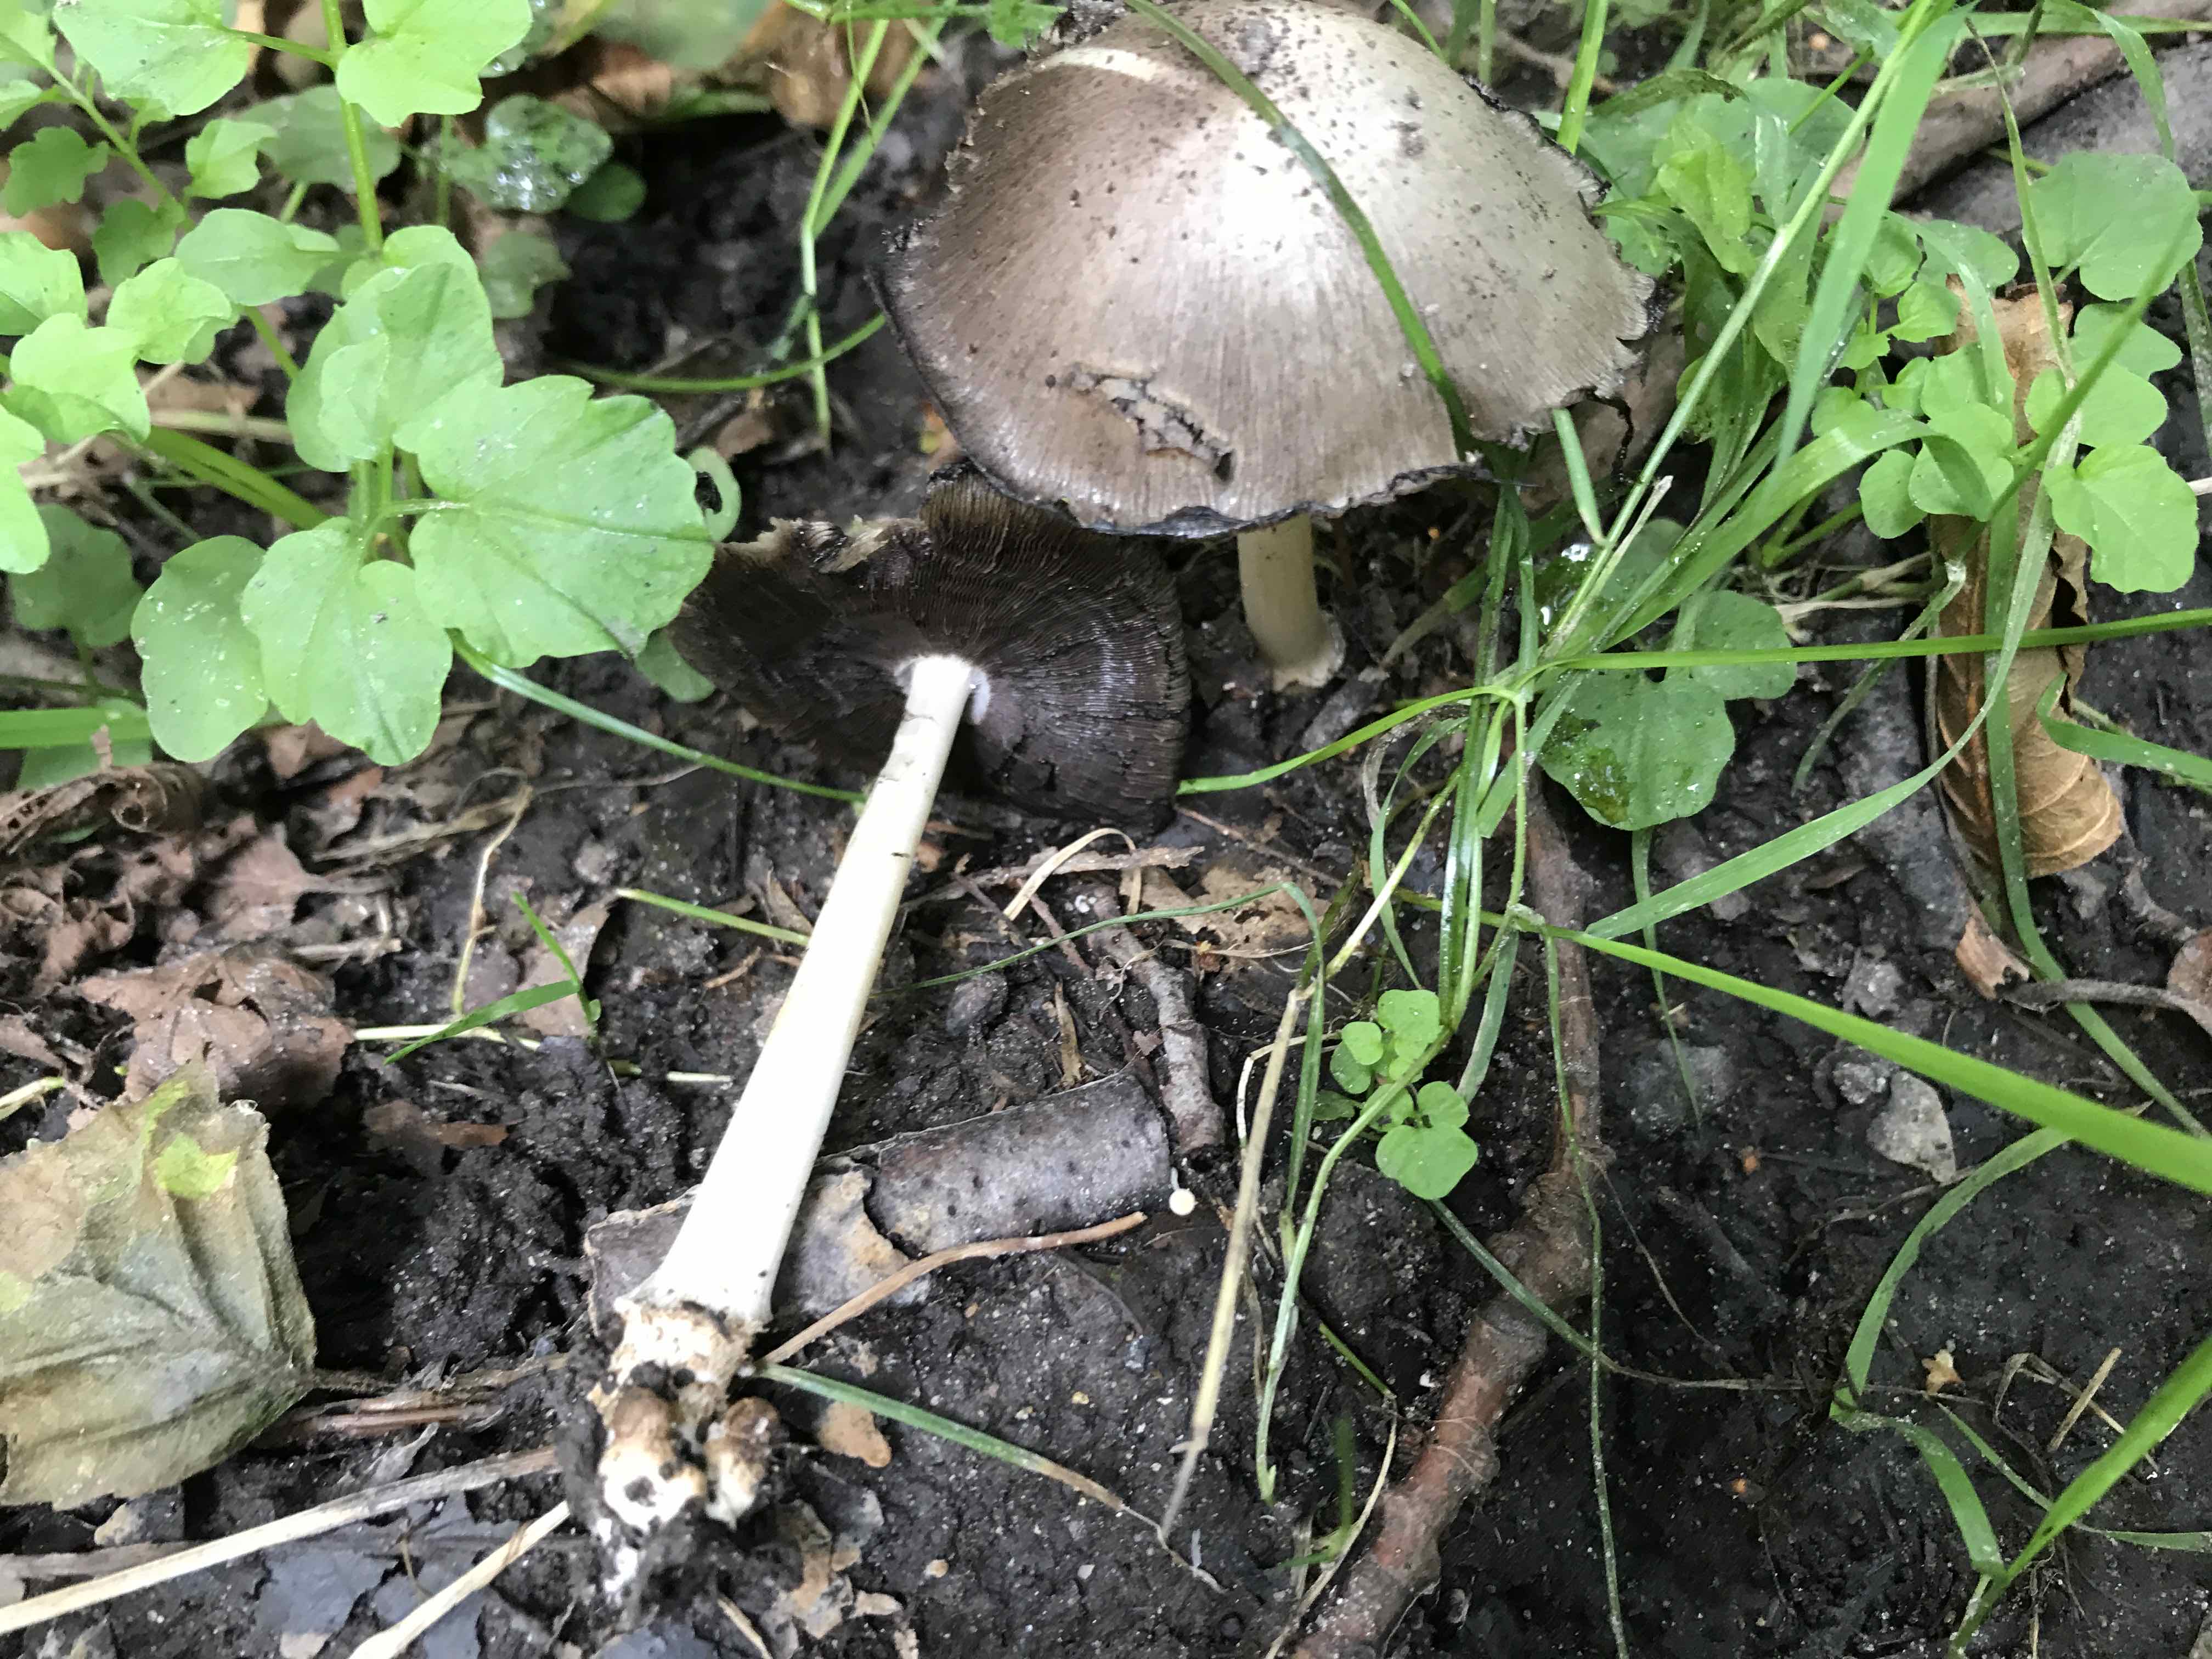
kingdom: Fungi
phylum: Basidiomycota
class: Agaricomycetes
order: Agaricales
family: Psathyrellaceae
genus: Coprinopsis
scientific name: Coprinopsis atramentaria
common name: almindelig blækhat
